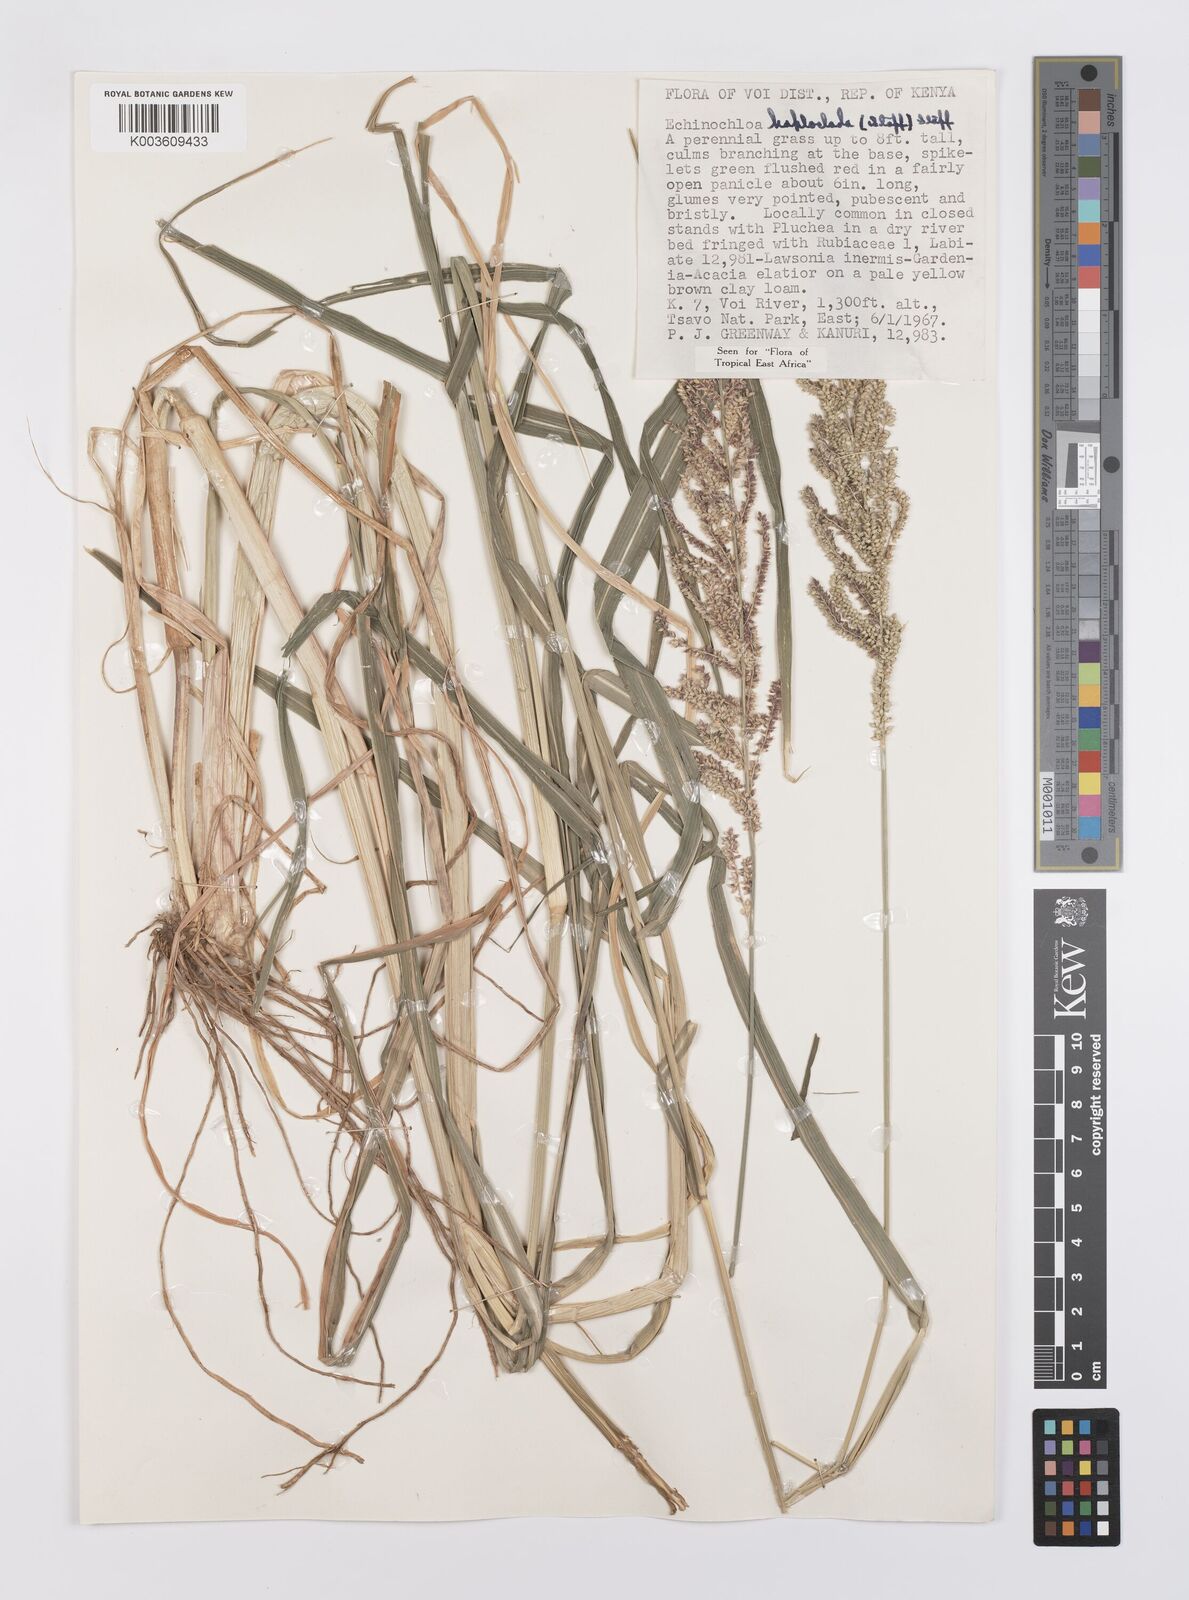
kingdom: Plantae
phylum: Tracheophyta
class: Liliopsida
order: Poales
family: Poaceae
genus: Echinochloa
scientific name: Echinochloa haploclada
